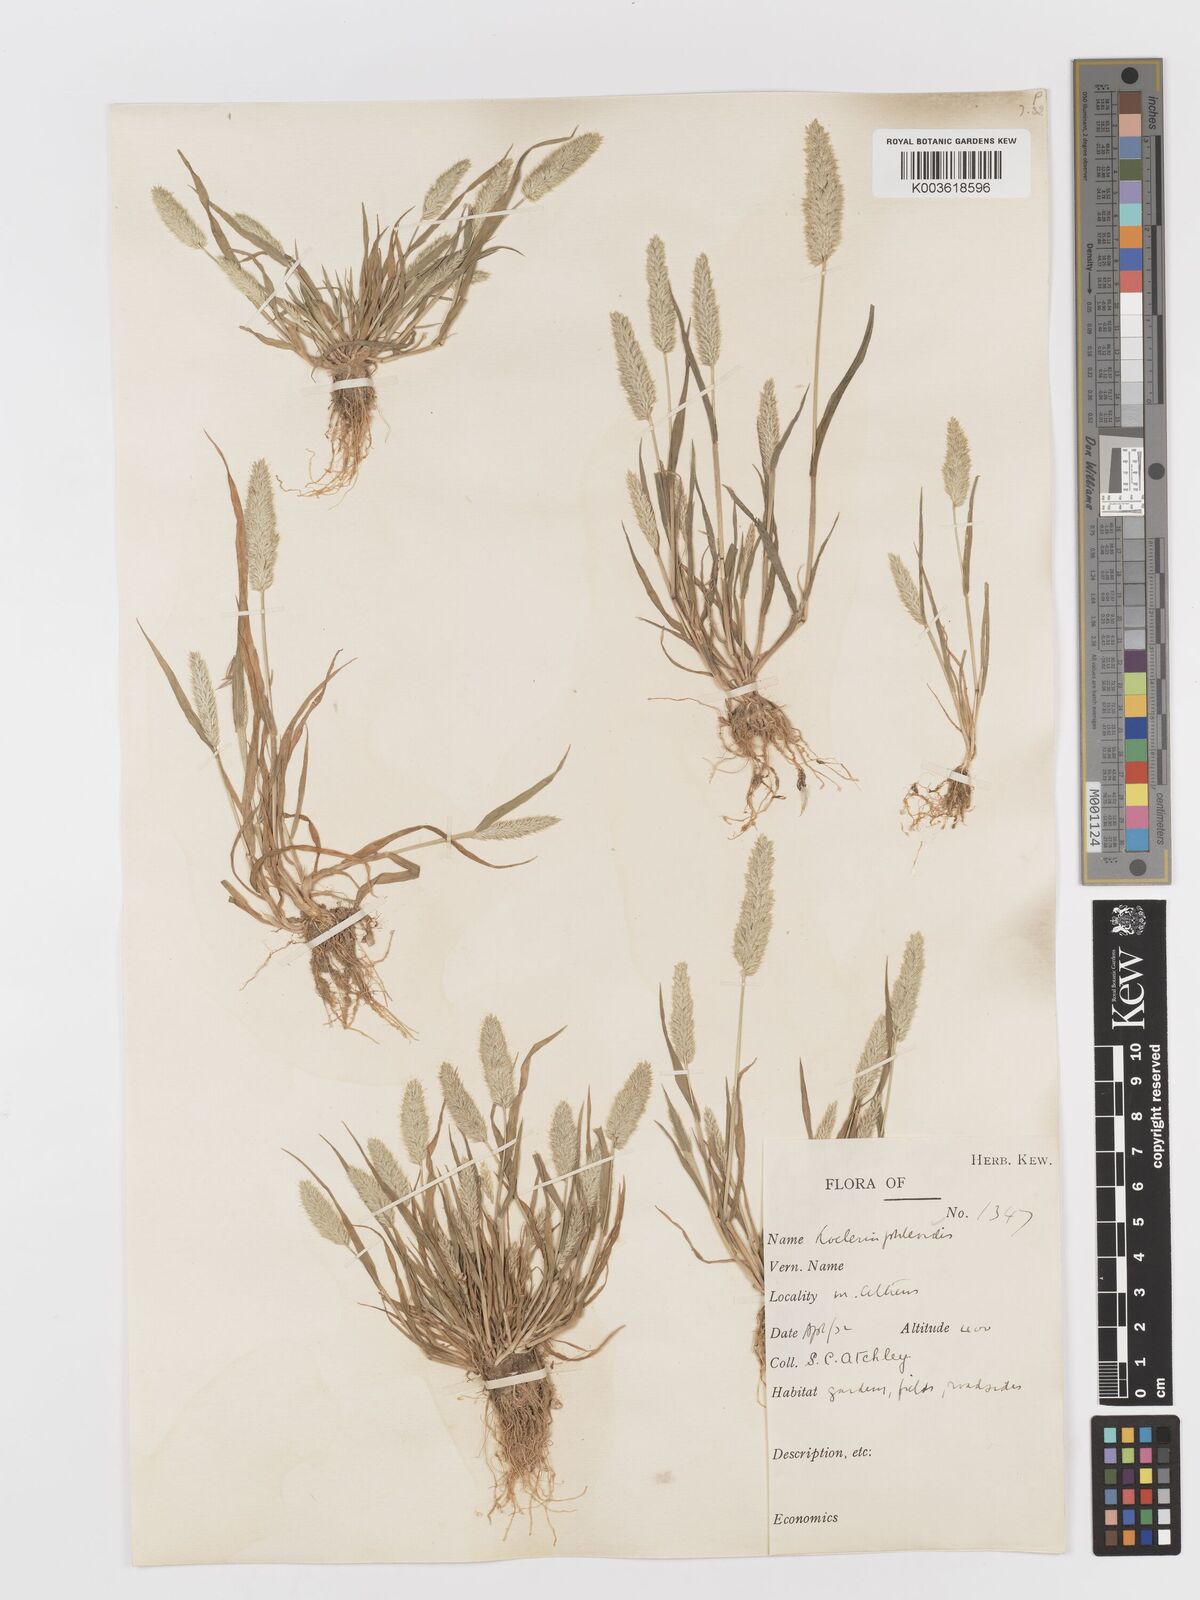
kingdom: Plantae
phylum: Tracheophyta
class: Liliopsida
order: Poales
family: Poaceae
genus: Rostraria
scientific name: Rostraria cristata
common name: Mediterranean hair-grass
